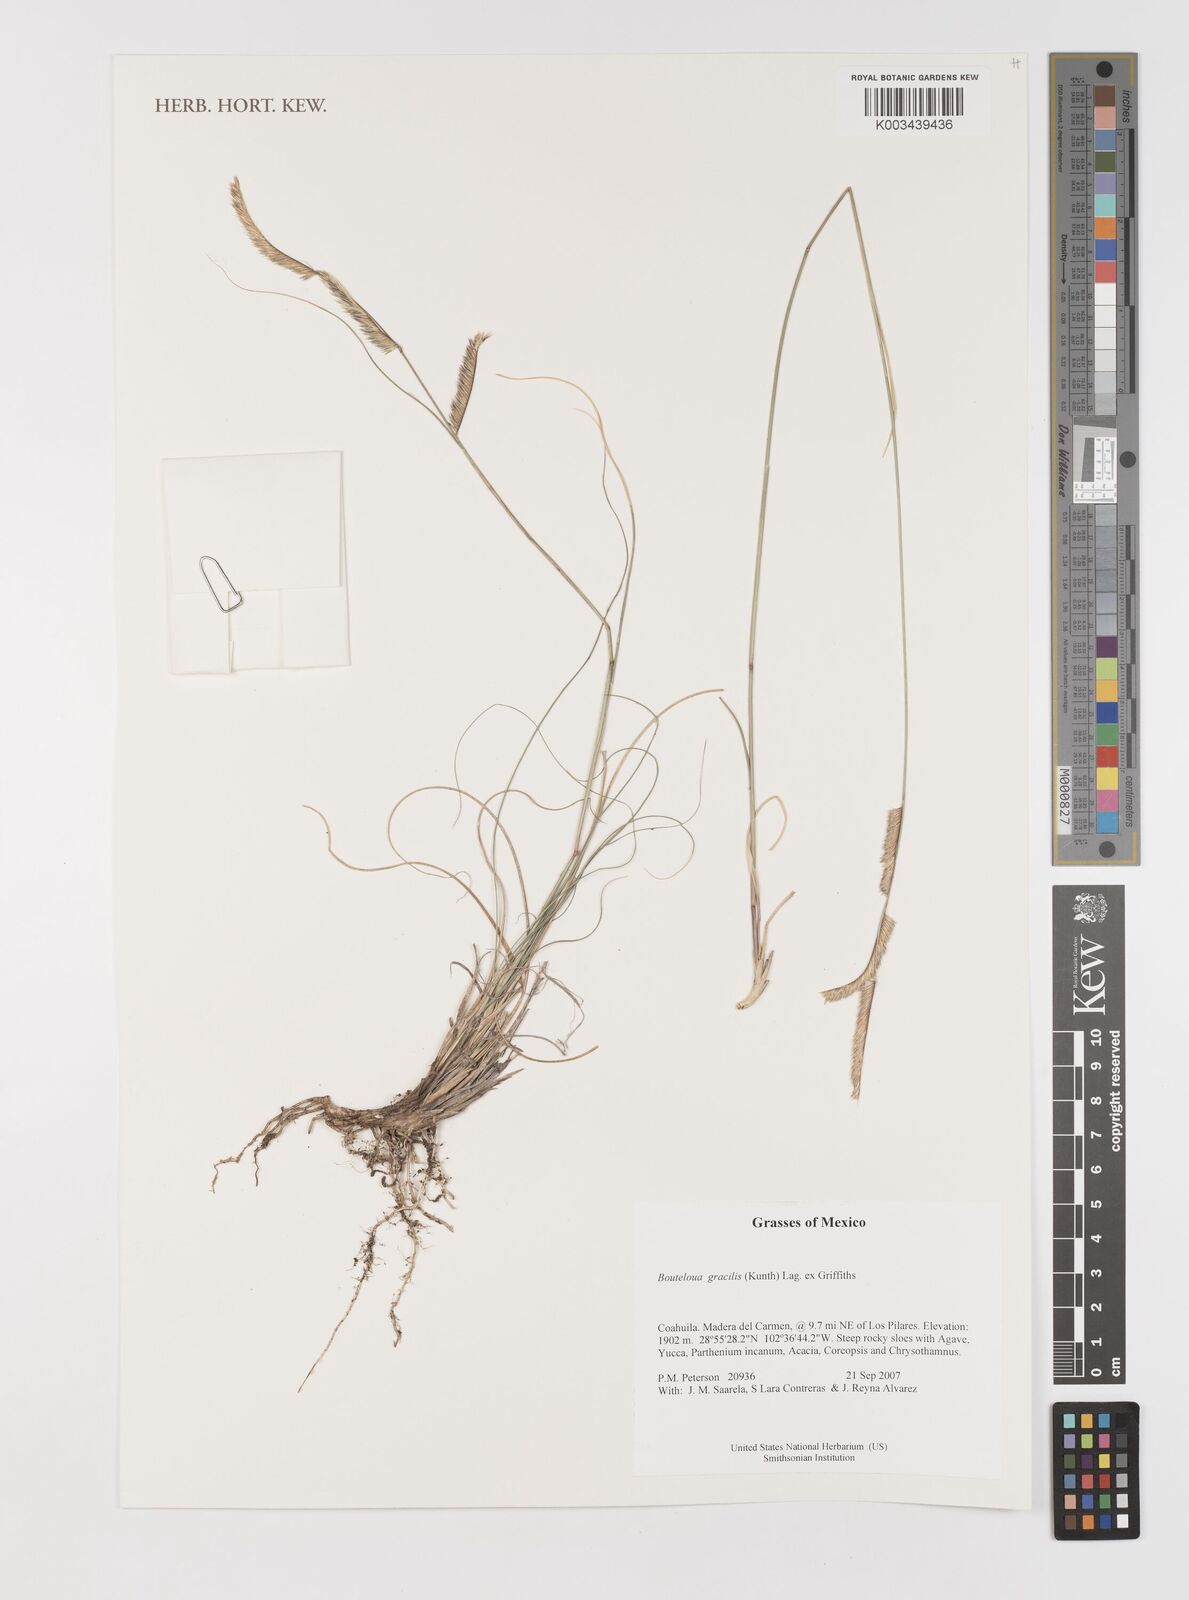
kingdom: Plantae
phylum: Tracheophyta
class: Liliopsida
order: Poales
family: Poaceae
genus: Bouteloua
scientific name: Bouteloua aristidoides
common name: Needle grama
